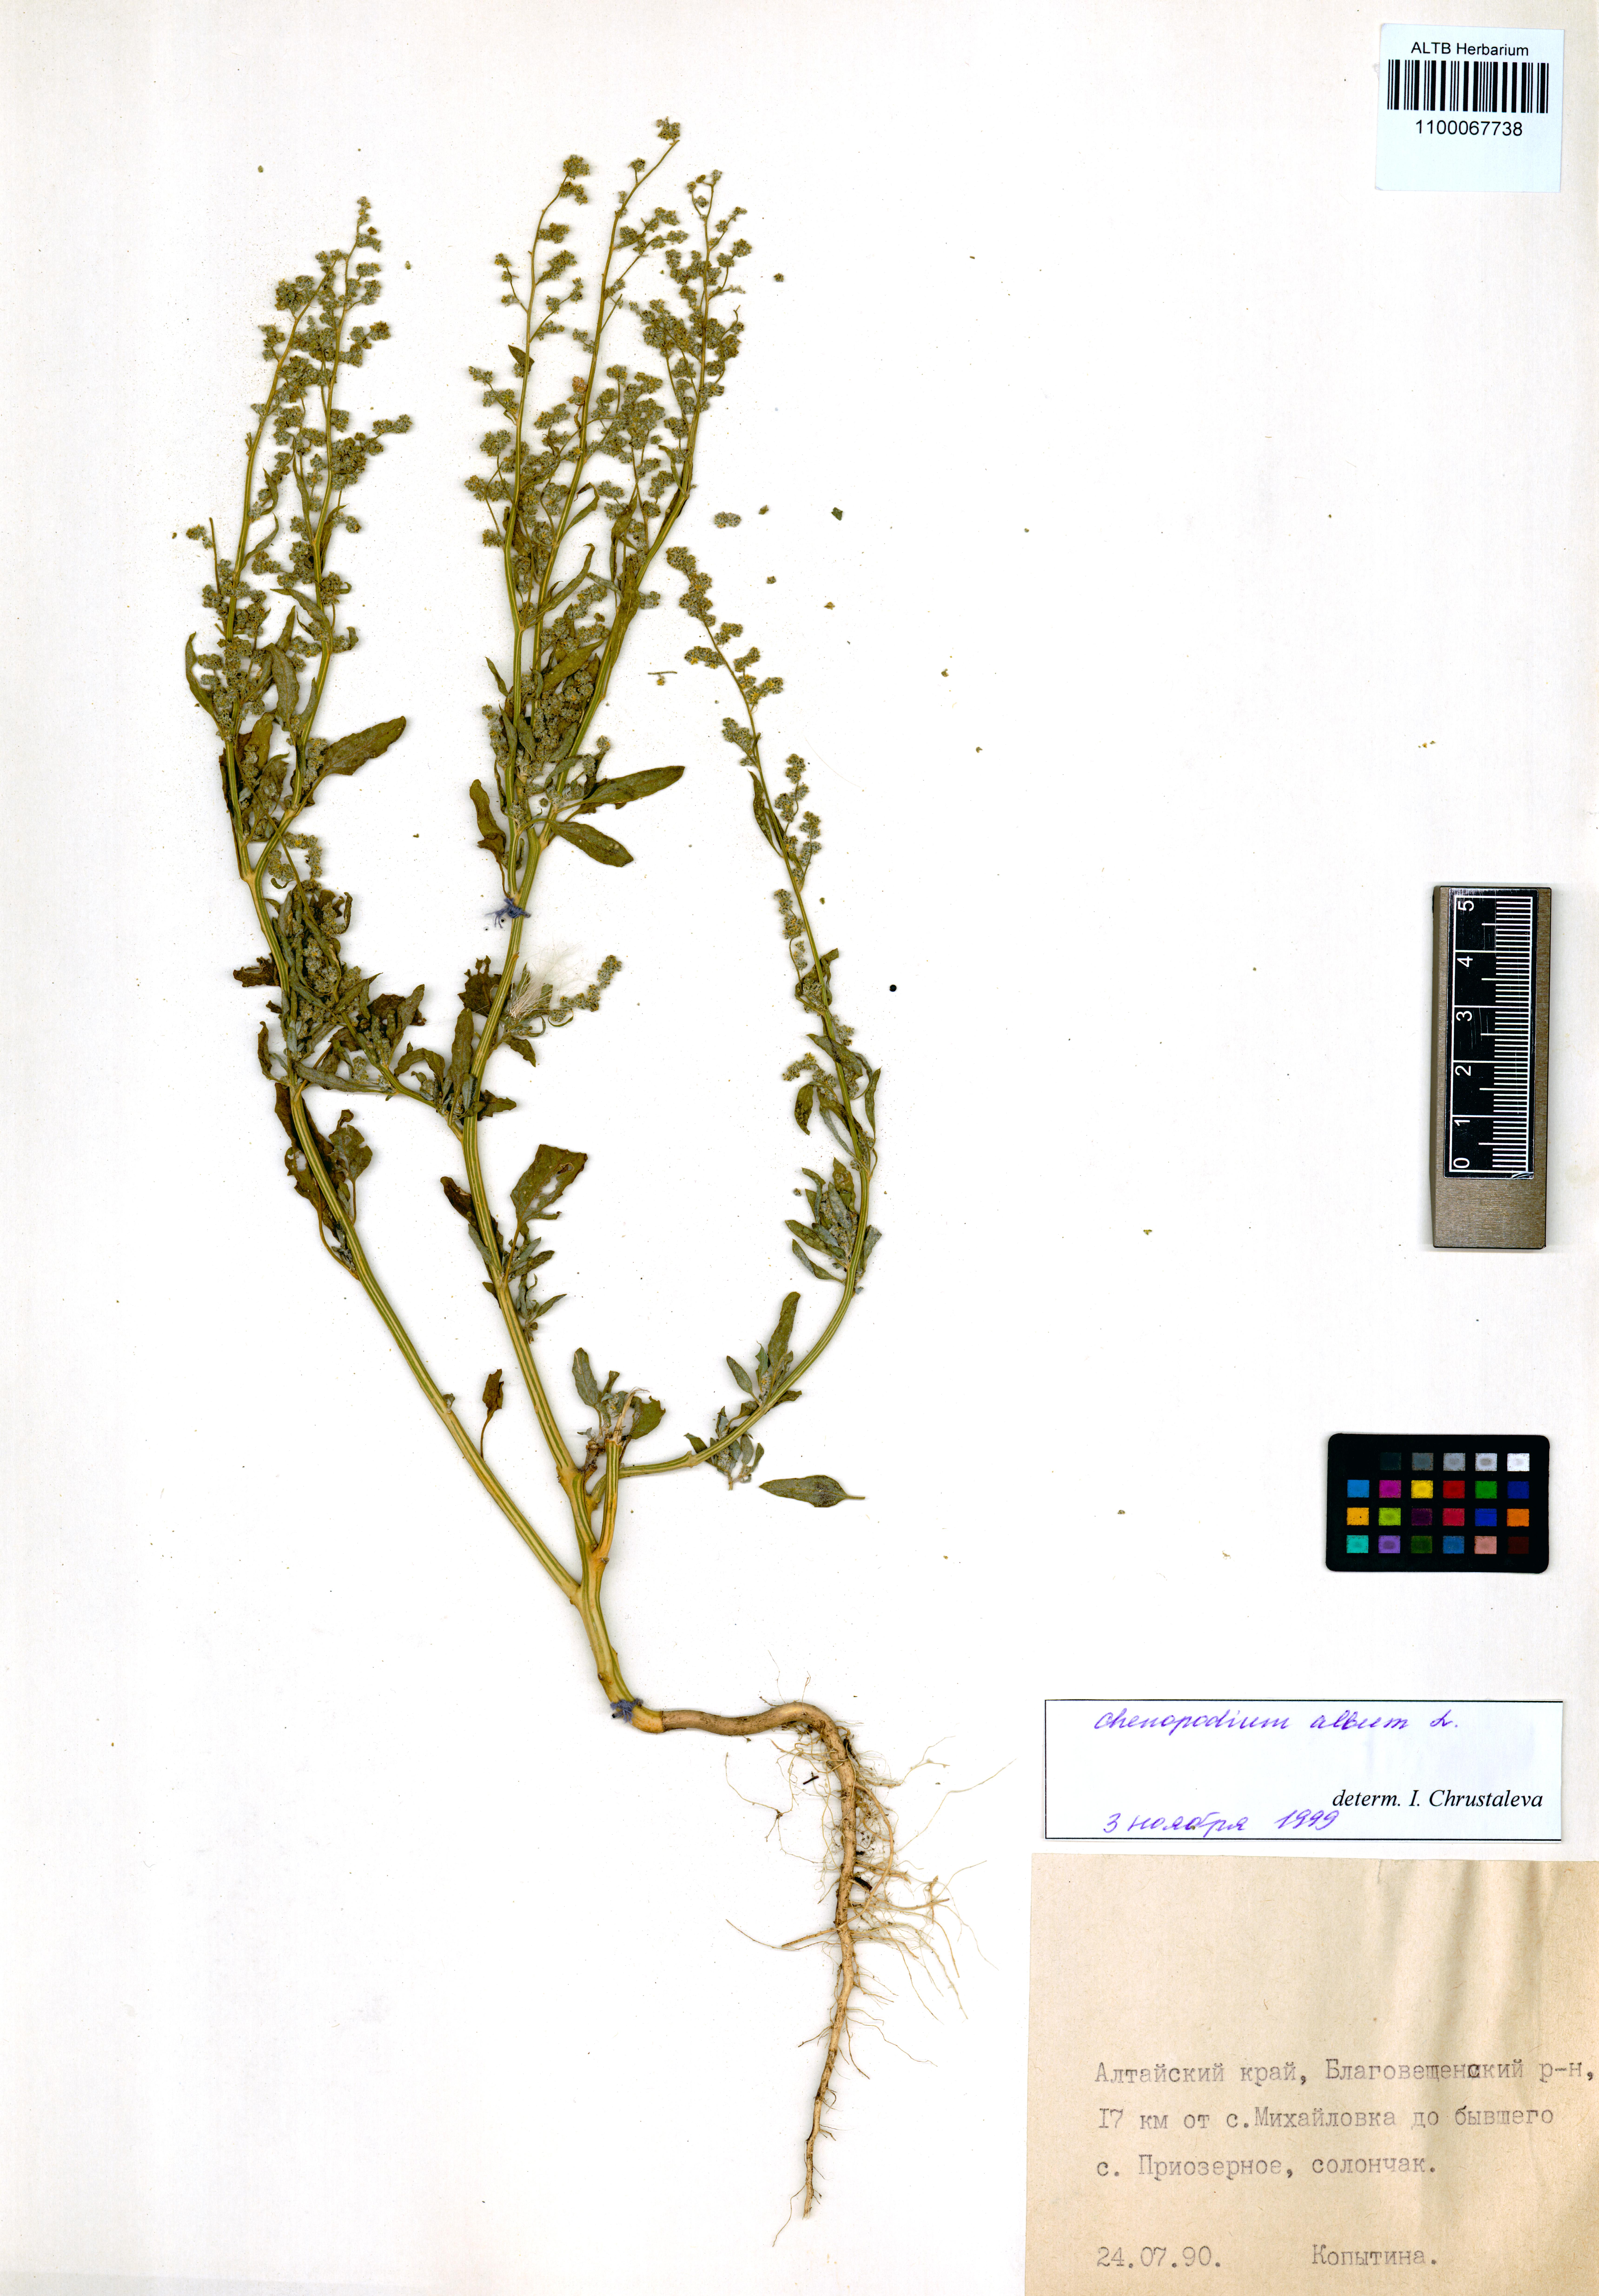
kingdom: Plantae
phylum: Tracheophyta
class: Magnoliopsida
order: Caryophyllales
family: Amaranthaceae
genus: Chenopodium
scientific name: Chenopodium album
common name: Fat-hen
